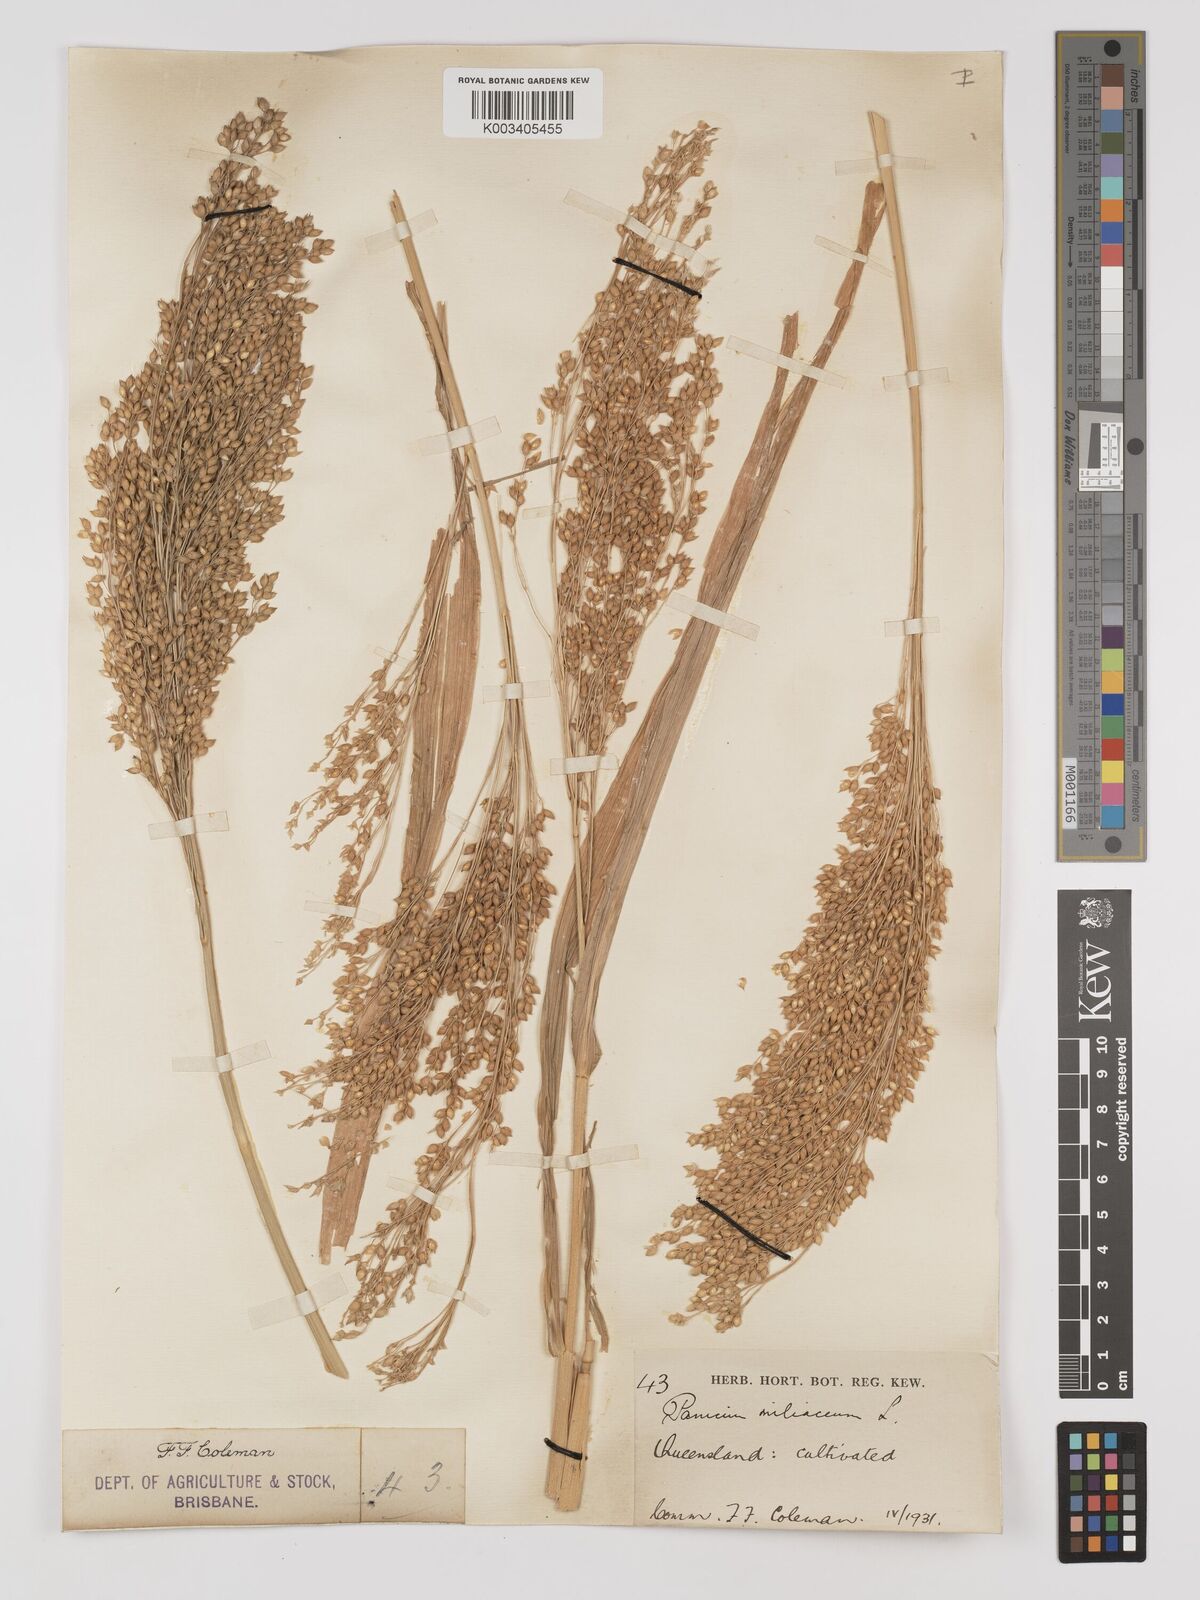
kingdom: Plantae
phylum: Tracheophyta
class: Liliopsida
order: Poales
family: Poaceae
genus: Panicum
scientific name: Panicum miliaceum
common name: Common millet
